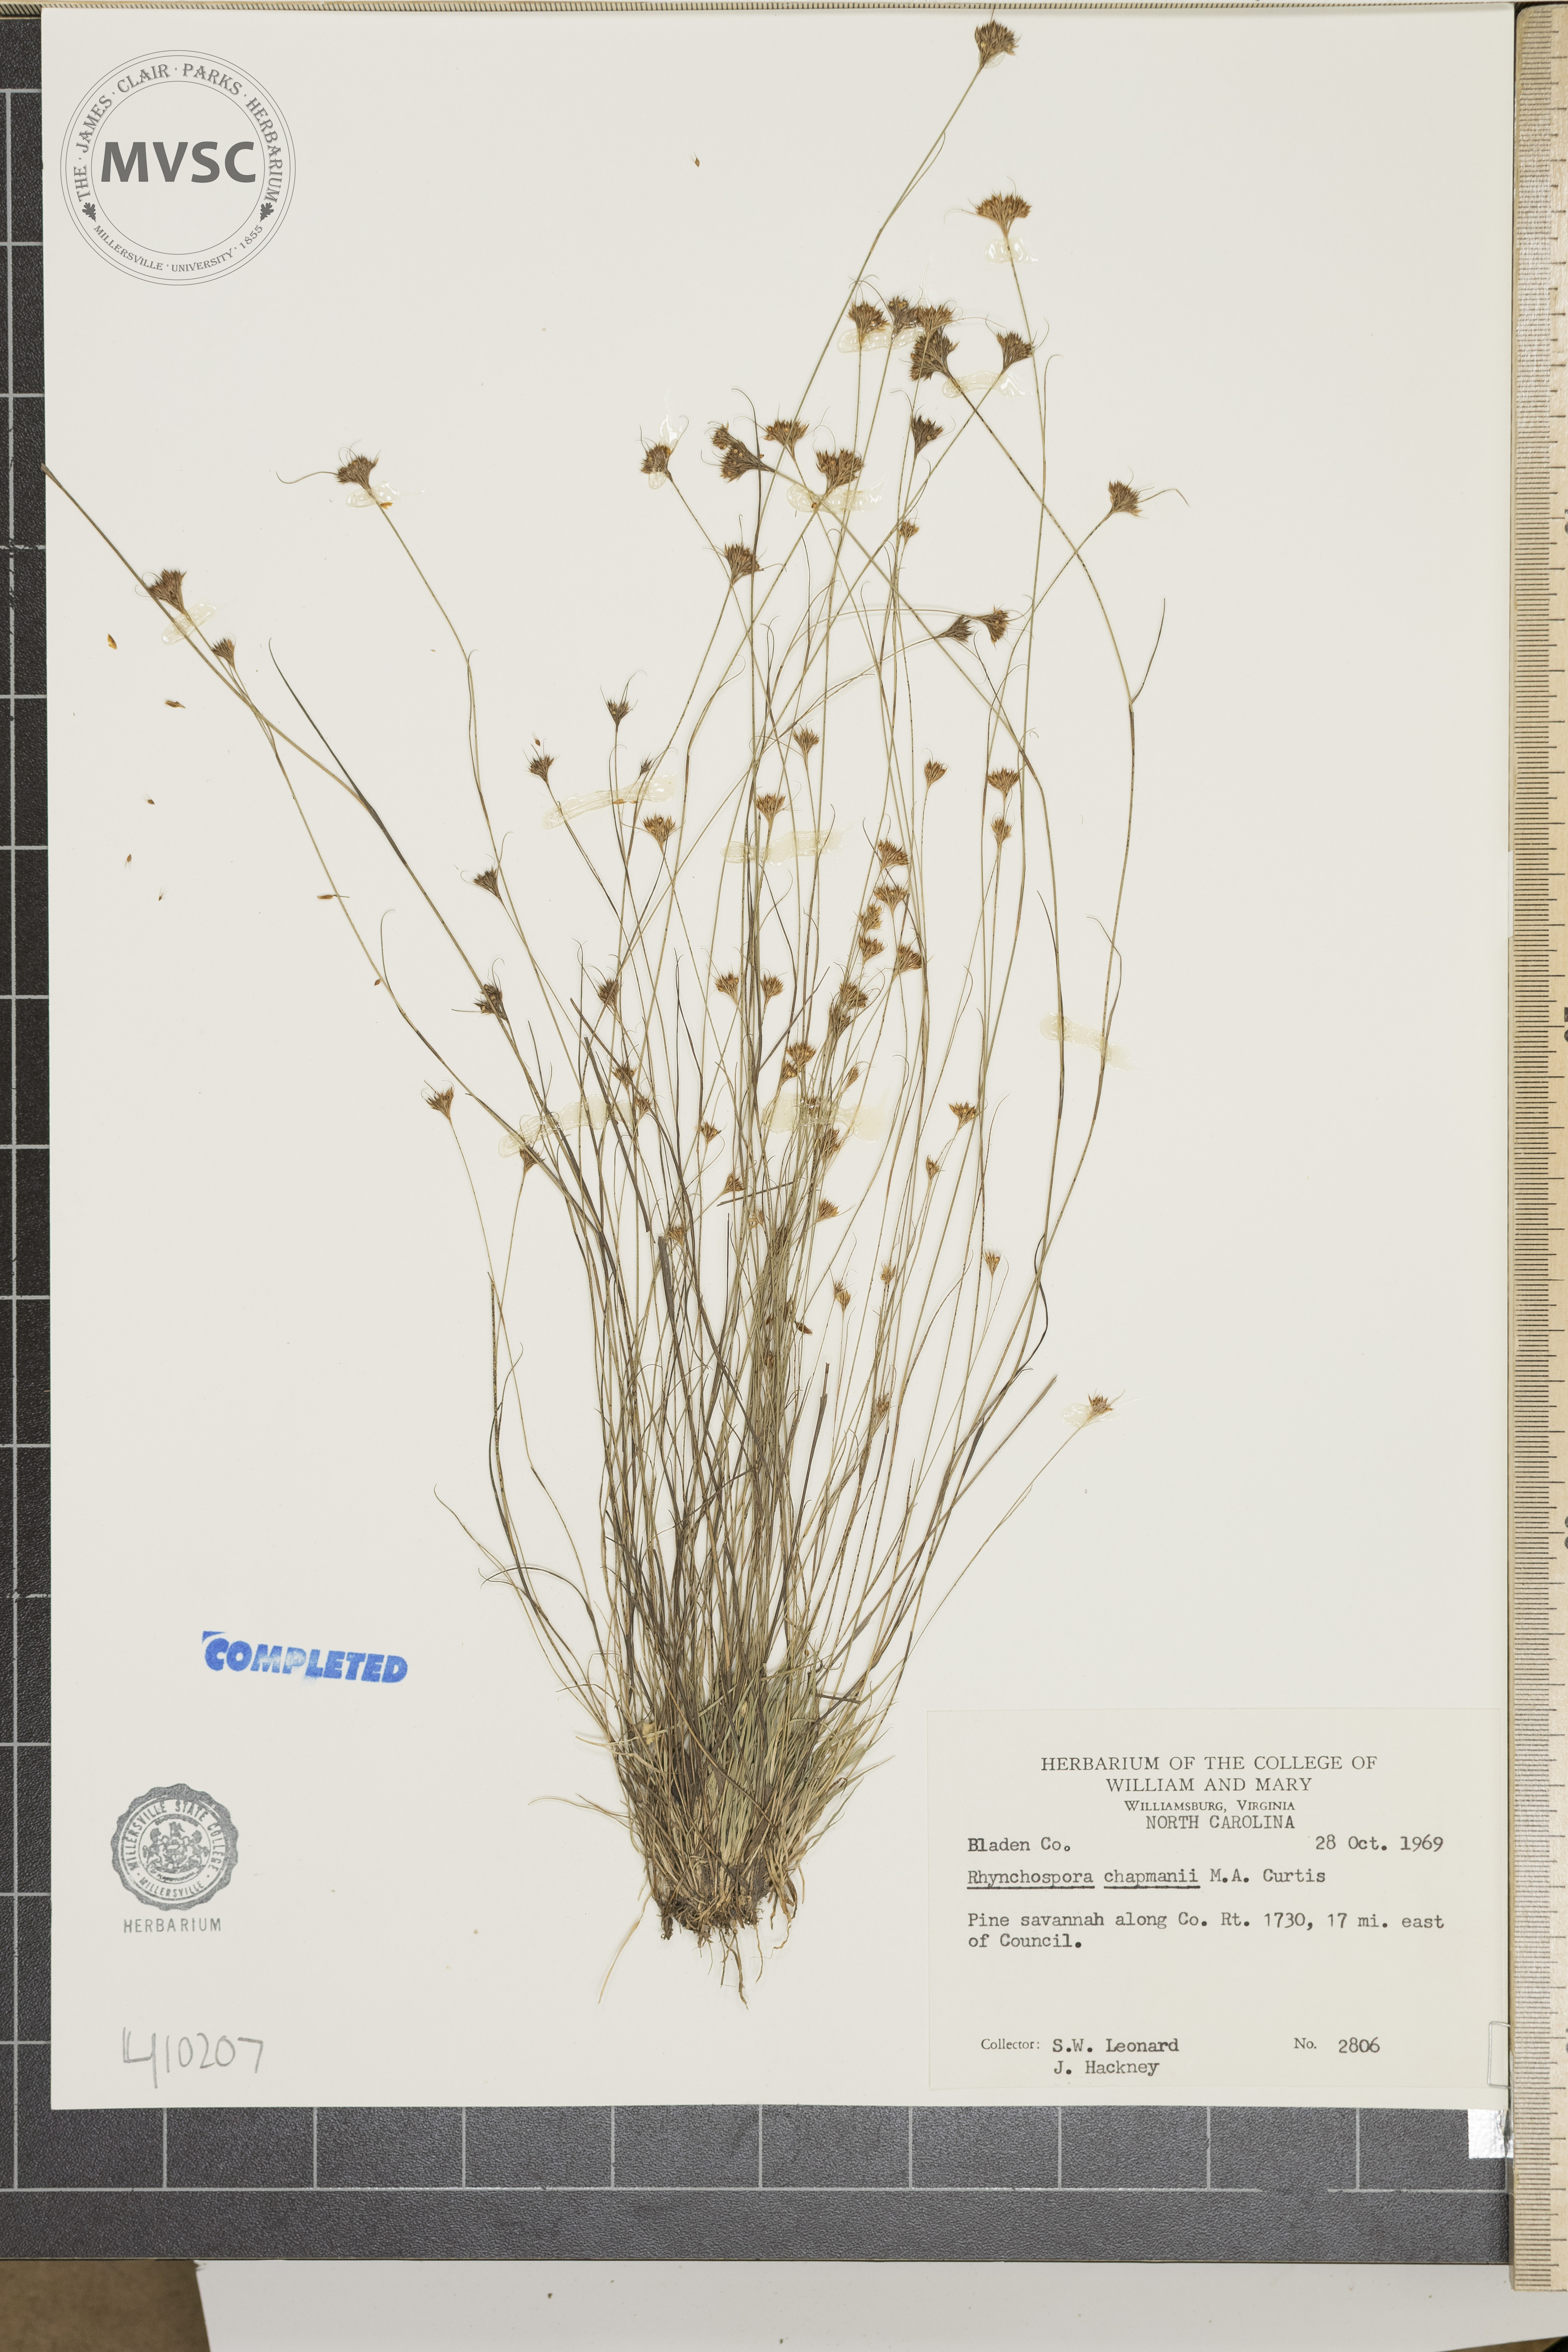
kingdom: Plantae
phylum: Tracheophyta
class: Liliopsida
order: Poales
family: Cyperaceae
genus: Rhynchospora
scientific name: Rhynchospora chapmanii
